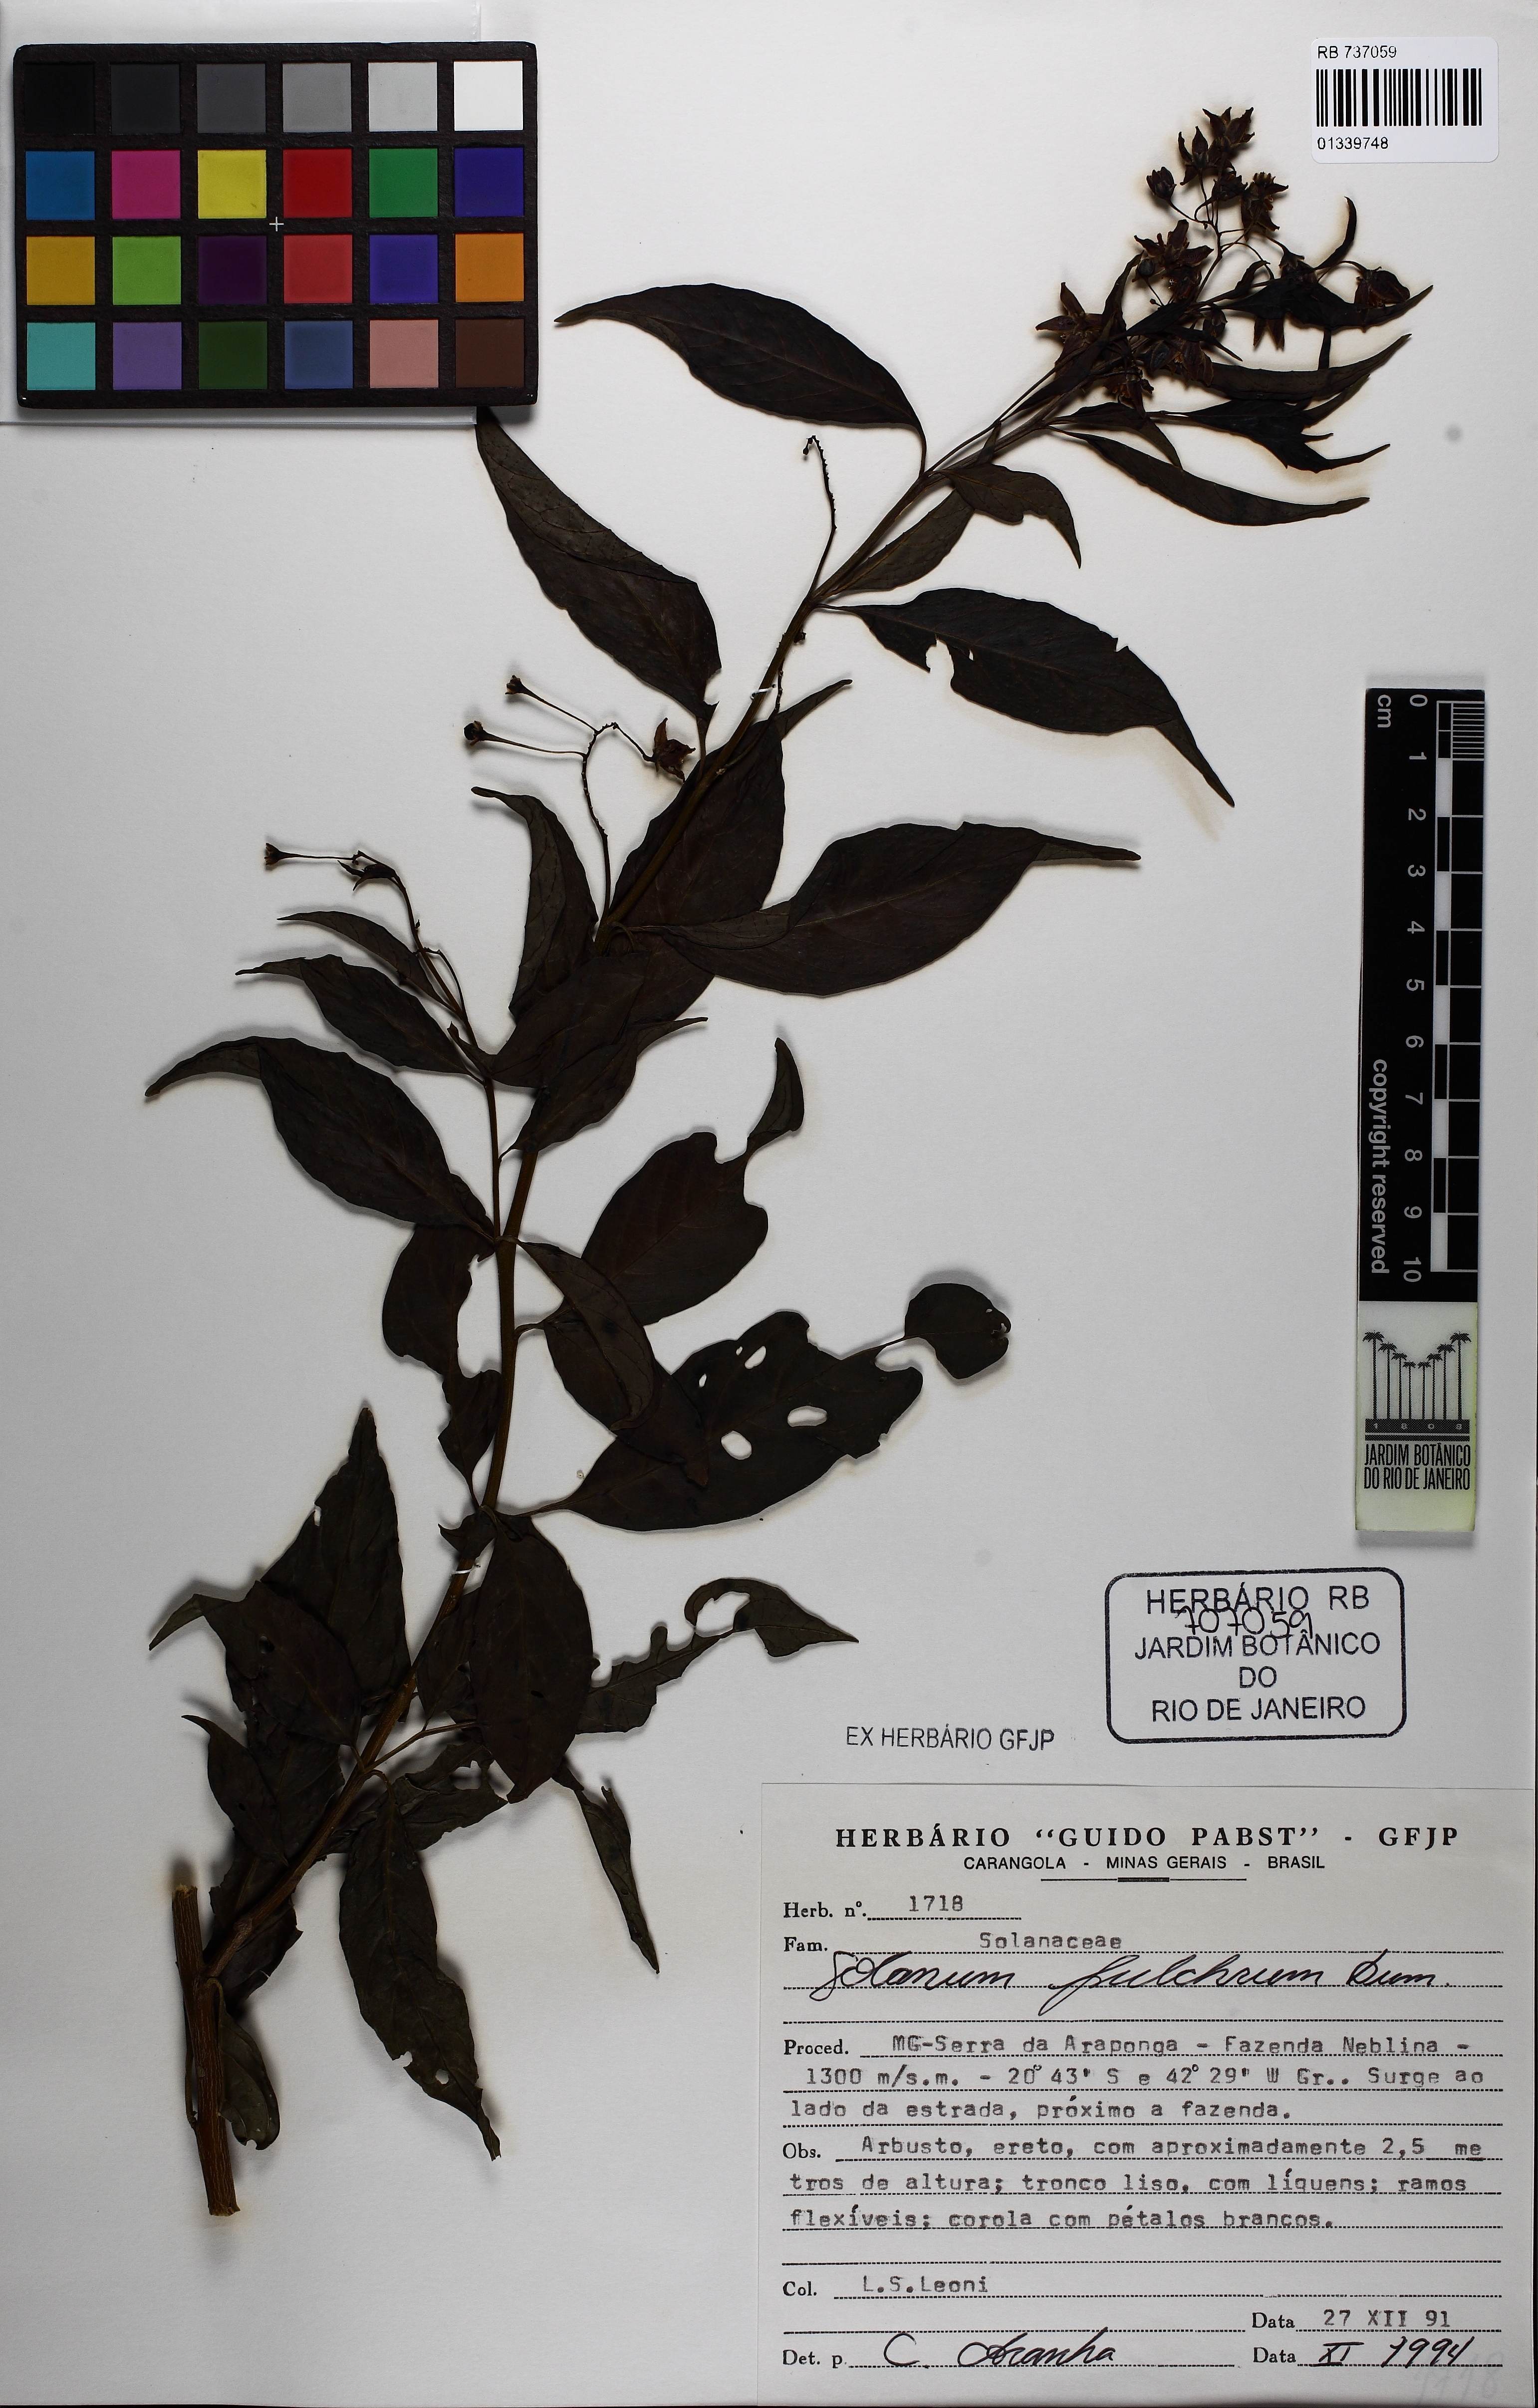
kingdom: Plantae
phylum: Tracheophyta
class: Magnoliopsida
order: Solanales
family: Solanaceae
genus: Solanum
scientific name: Solanum sessile
